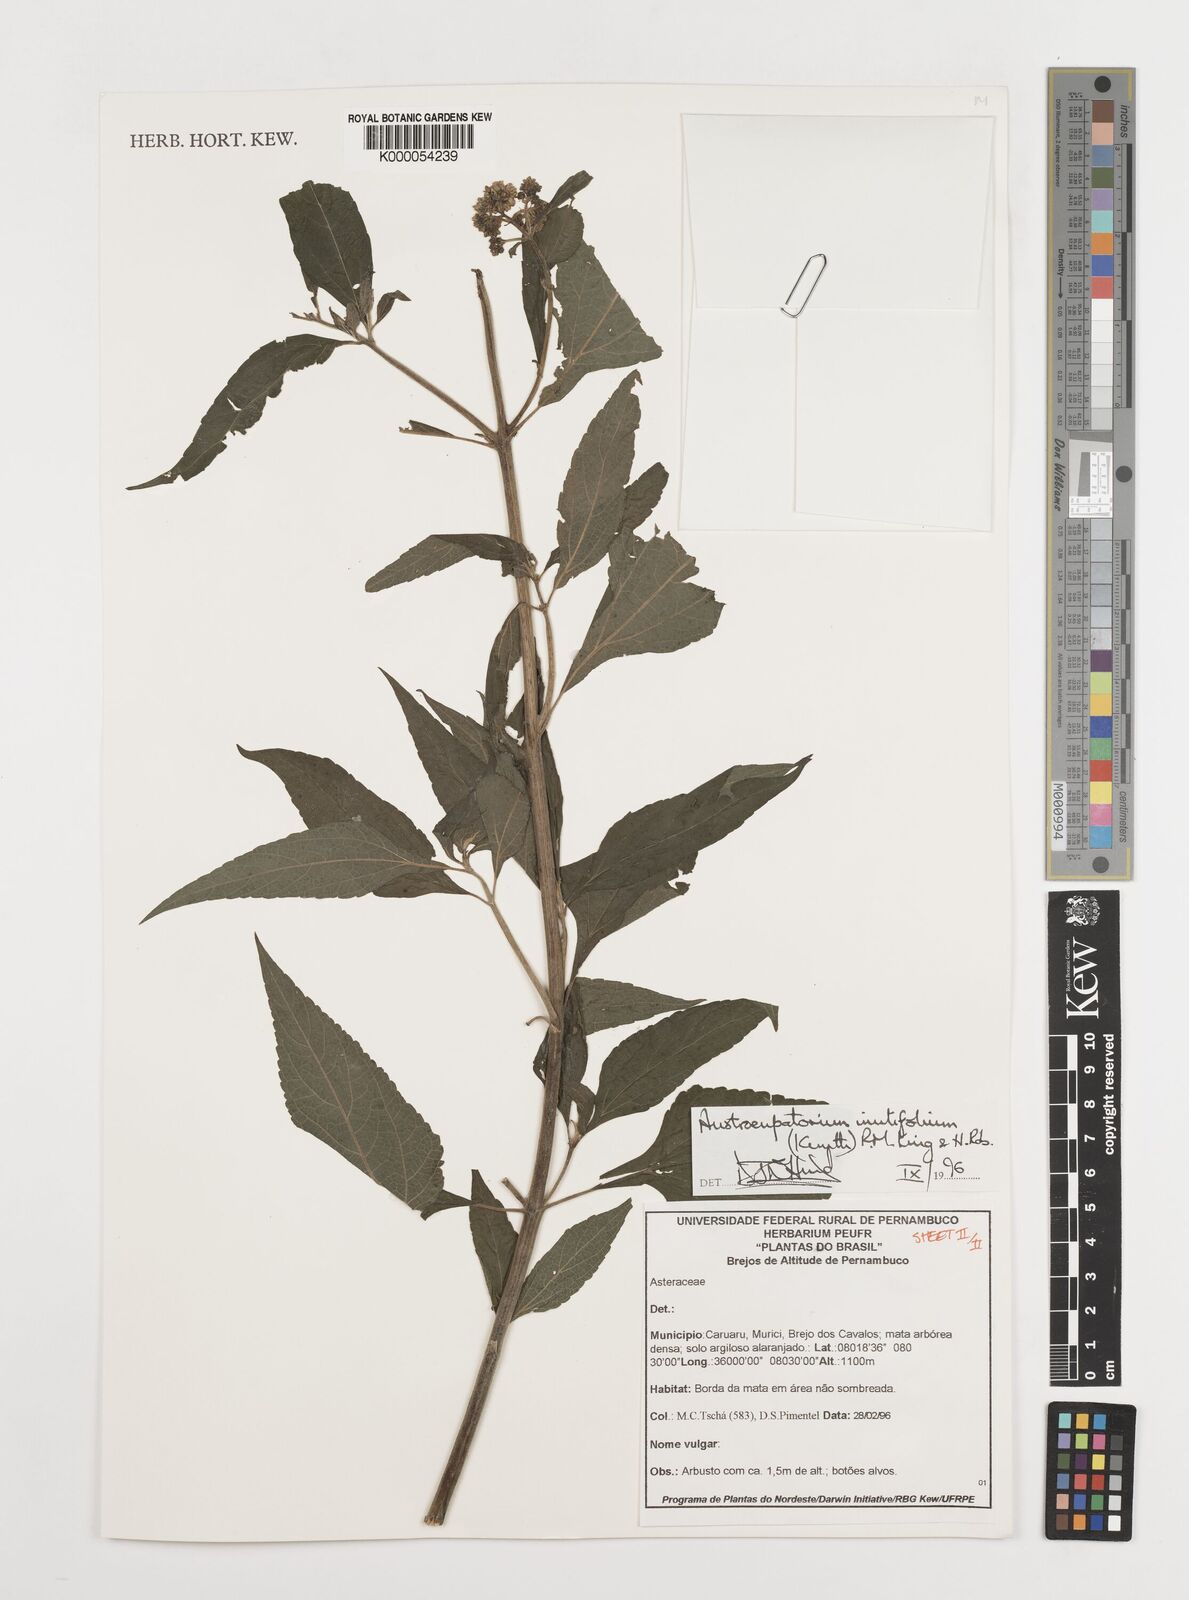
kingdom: Plantae
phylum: Tracheophyta
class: Magnoliopsida
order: Asterales
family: Asteraceae
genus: Austroeupatorium
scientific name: Austroeupatorium inulifolium
